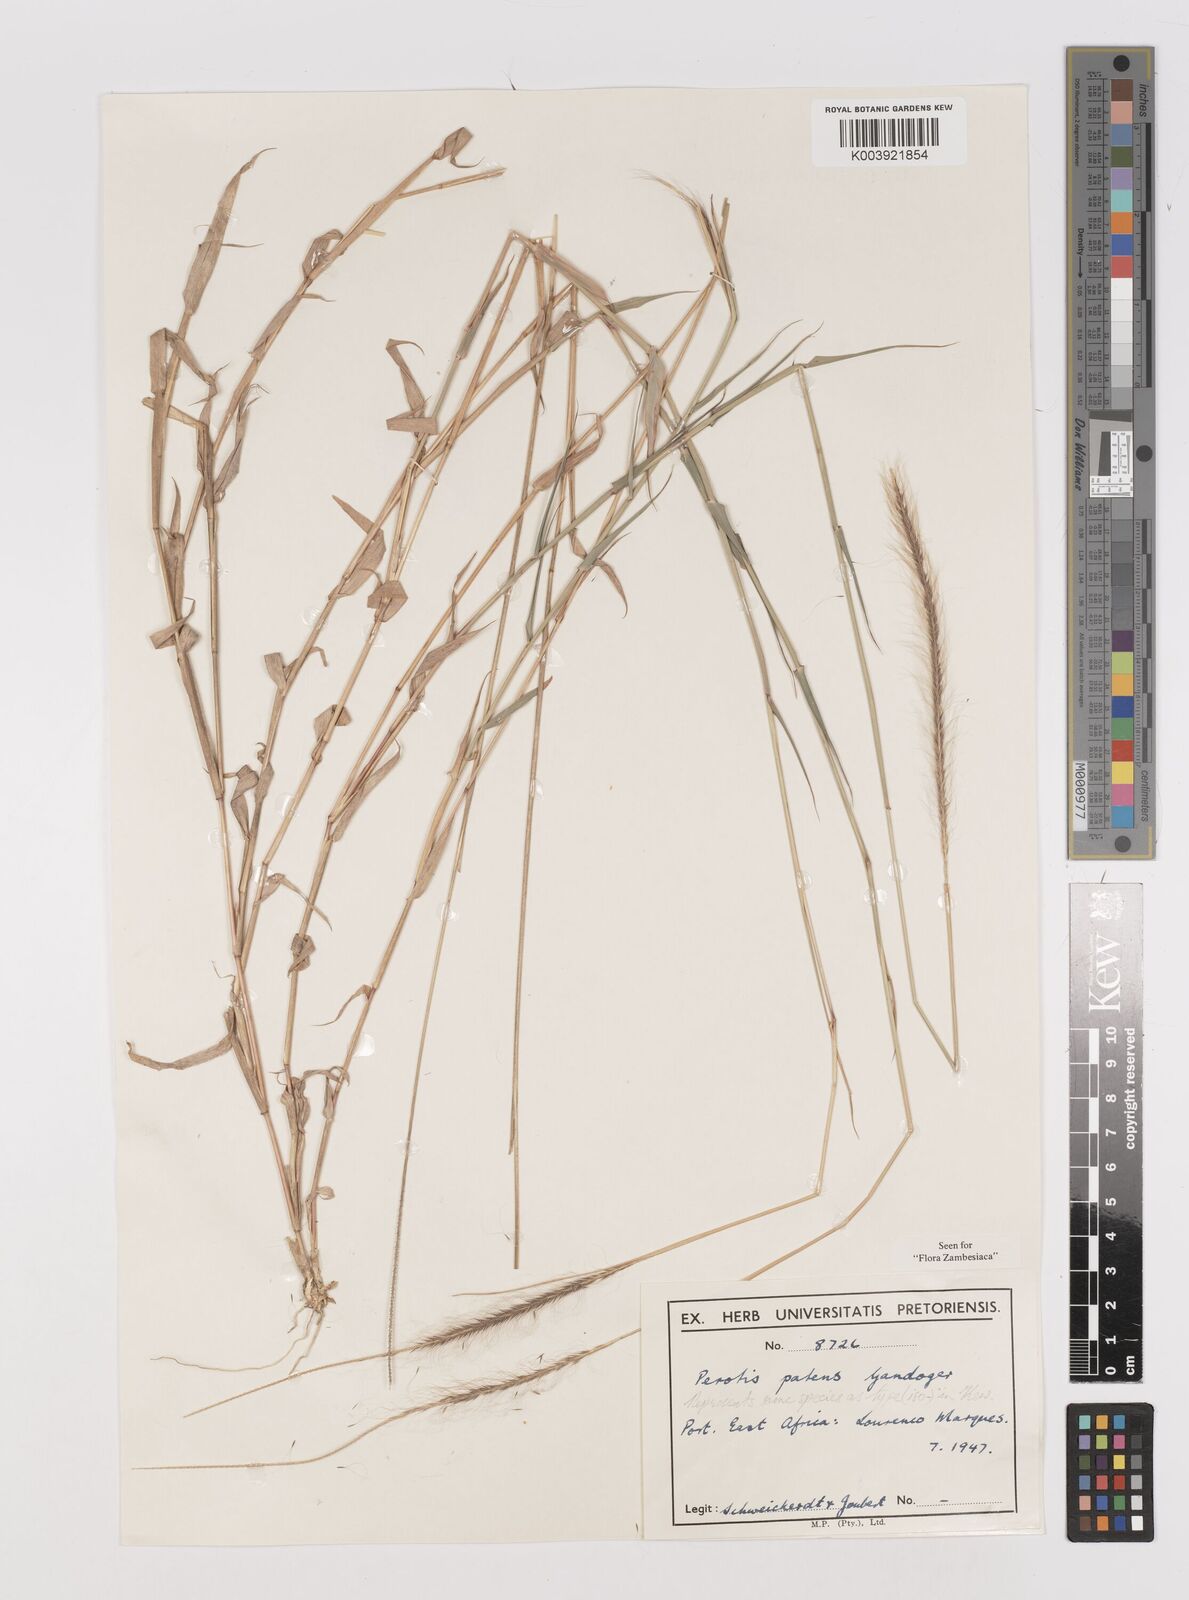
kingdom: Plantae
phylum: Tracheophyta
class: Liliopsida
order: Poales
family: Poaceae
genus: Perotis
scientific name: Perotis patens
